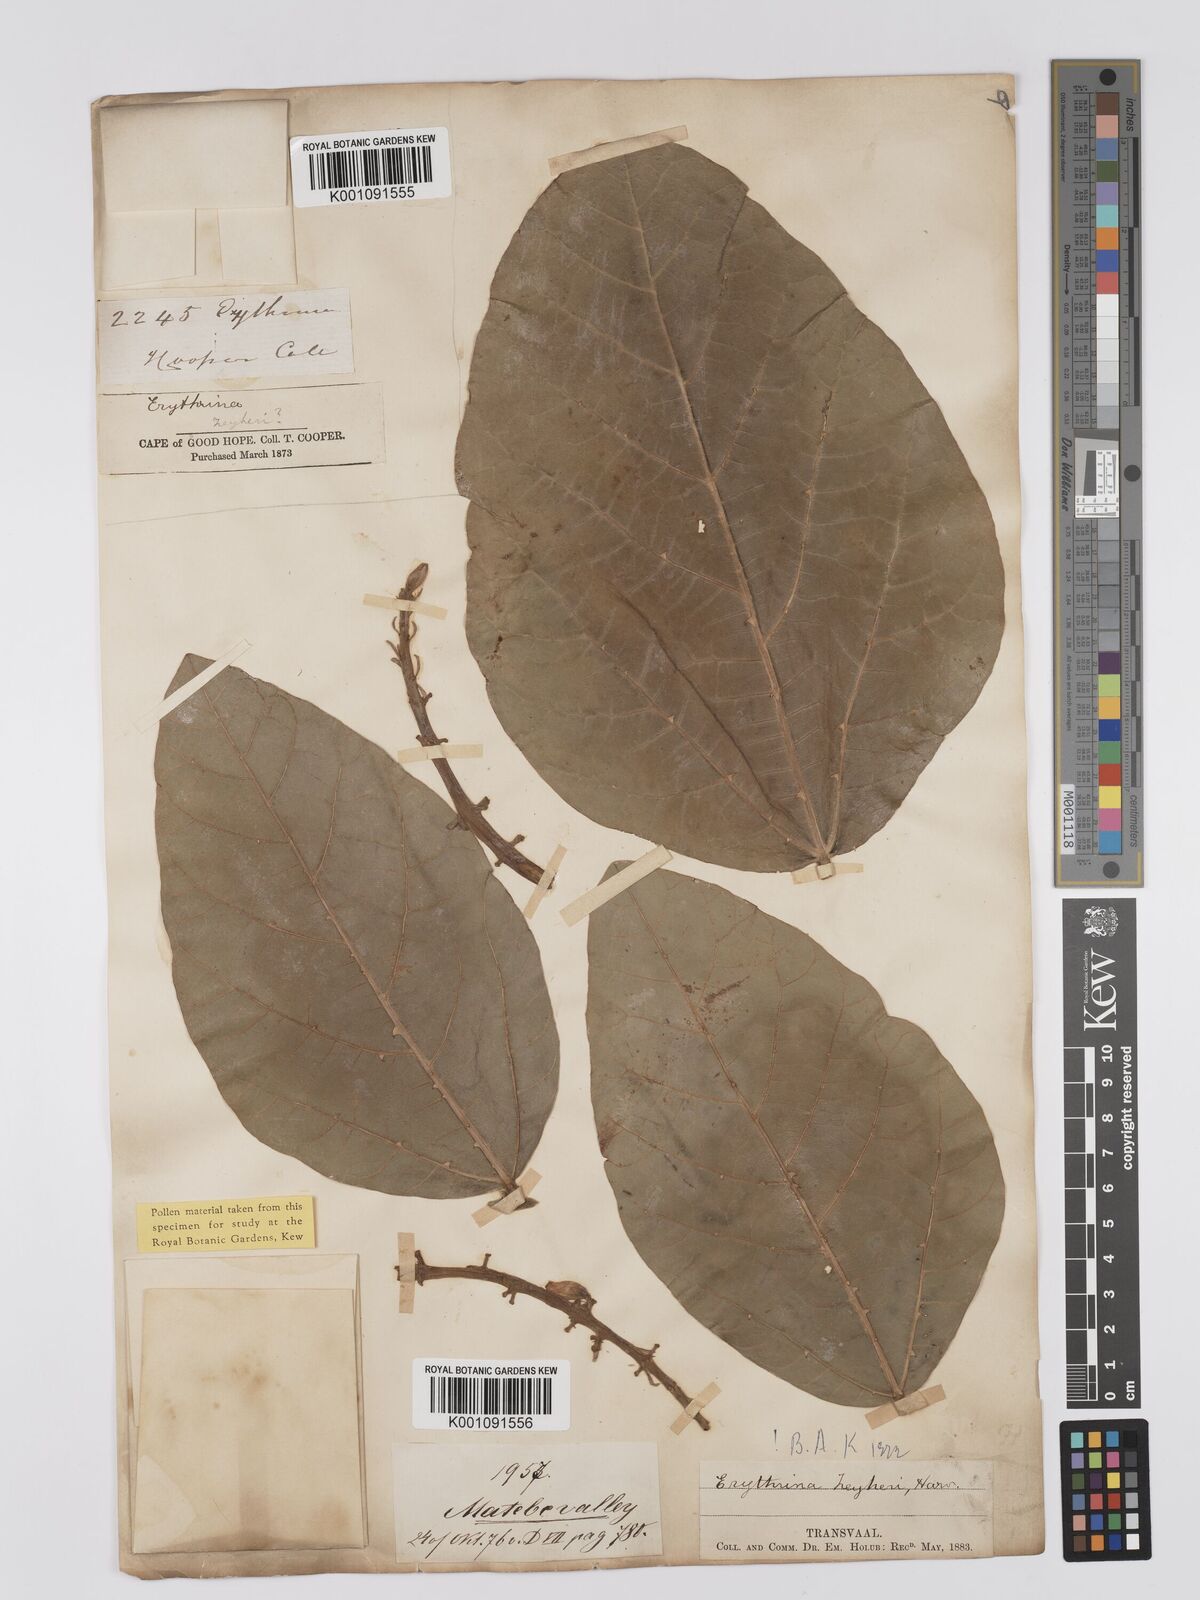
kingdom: Plantae
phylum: Tracheophyta
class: Magnoliopsida
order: Fabales
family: Fabaceae
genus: Erythrina
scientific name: Erythrina zeyheri
